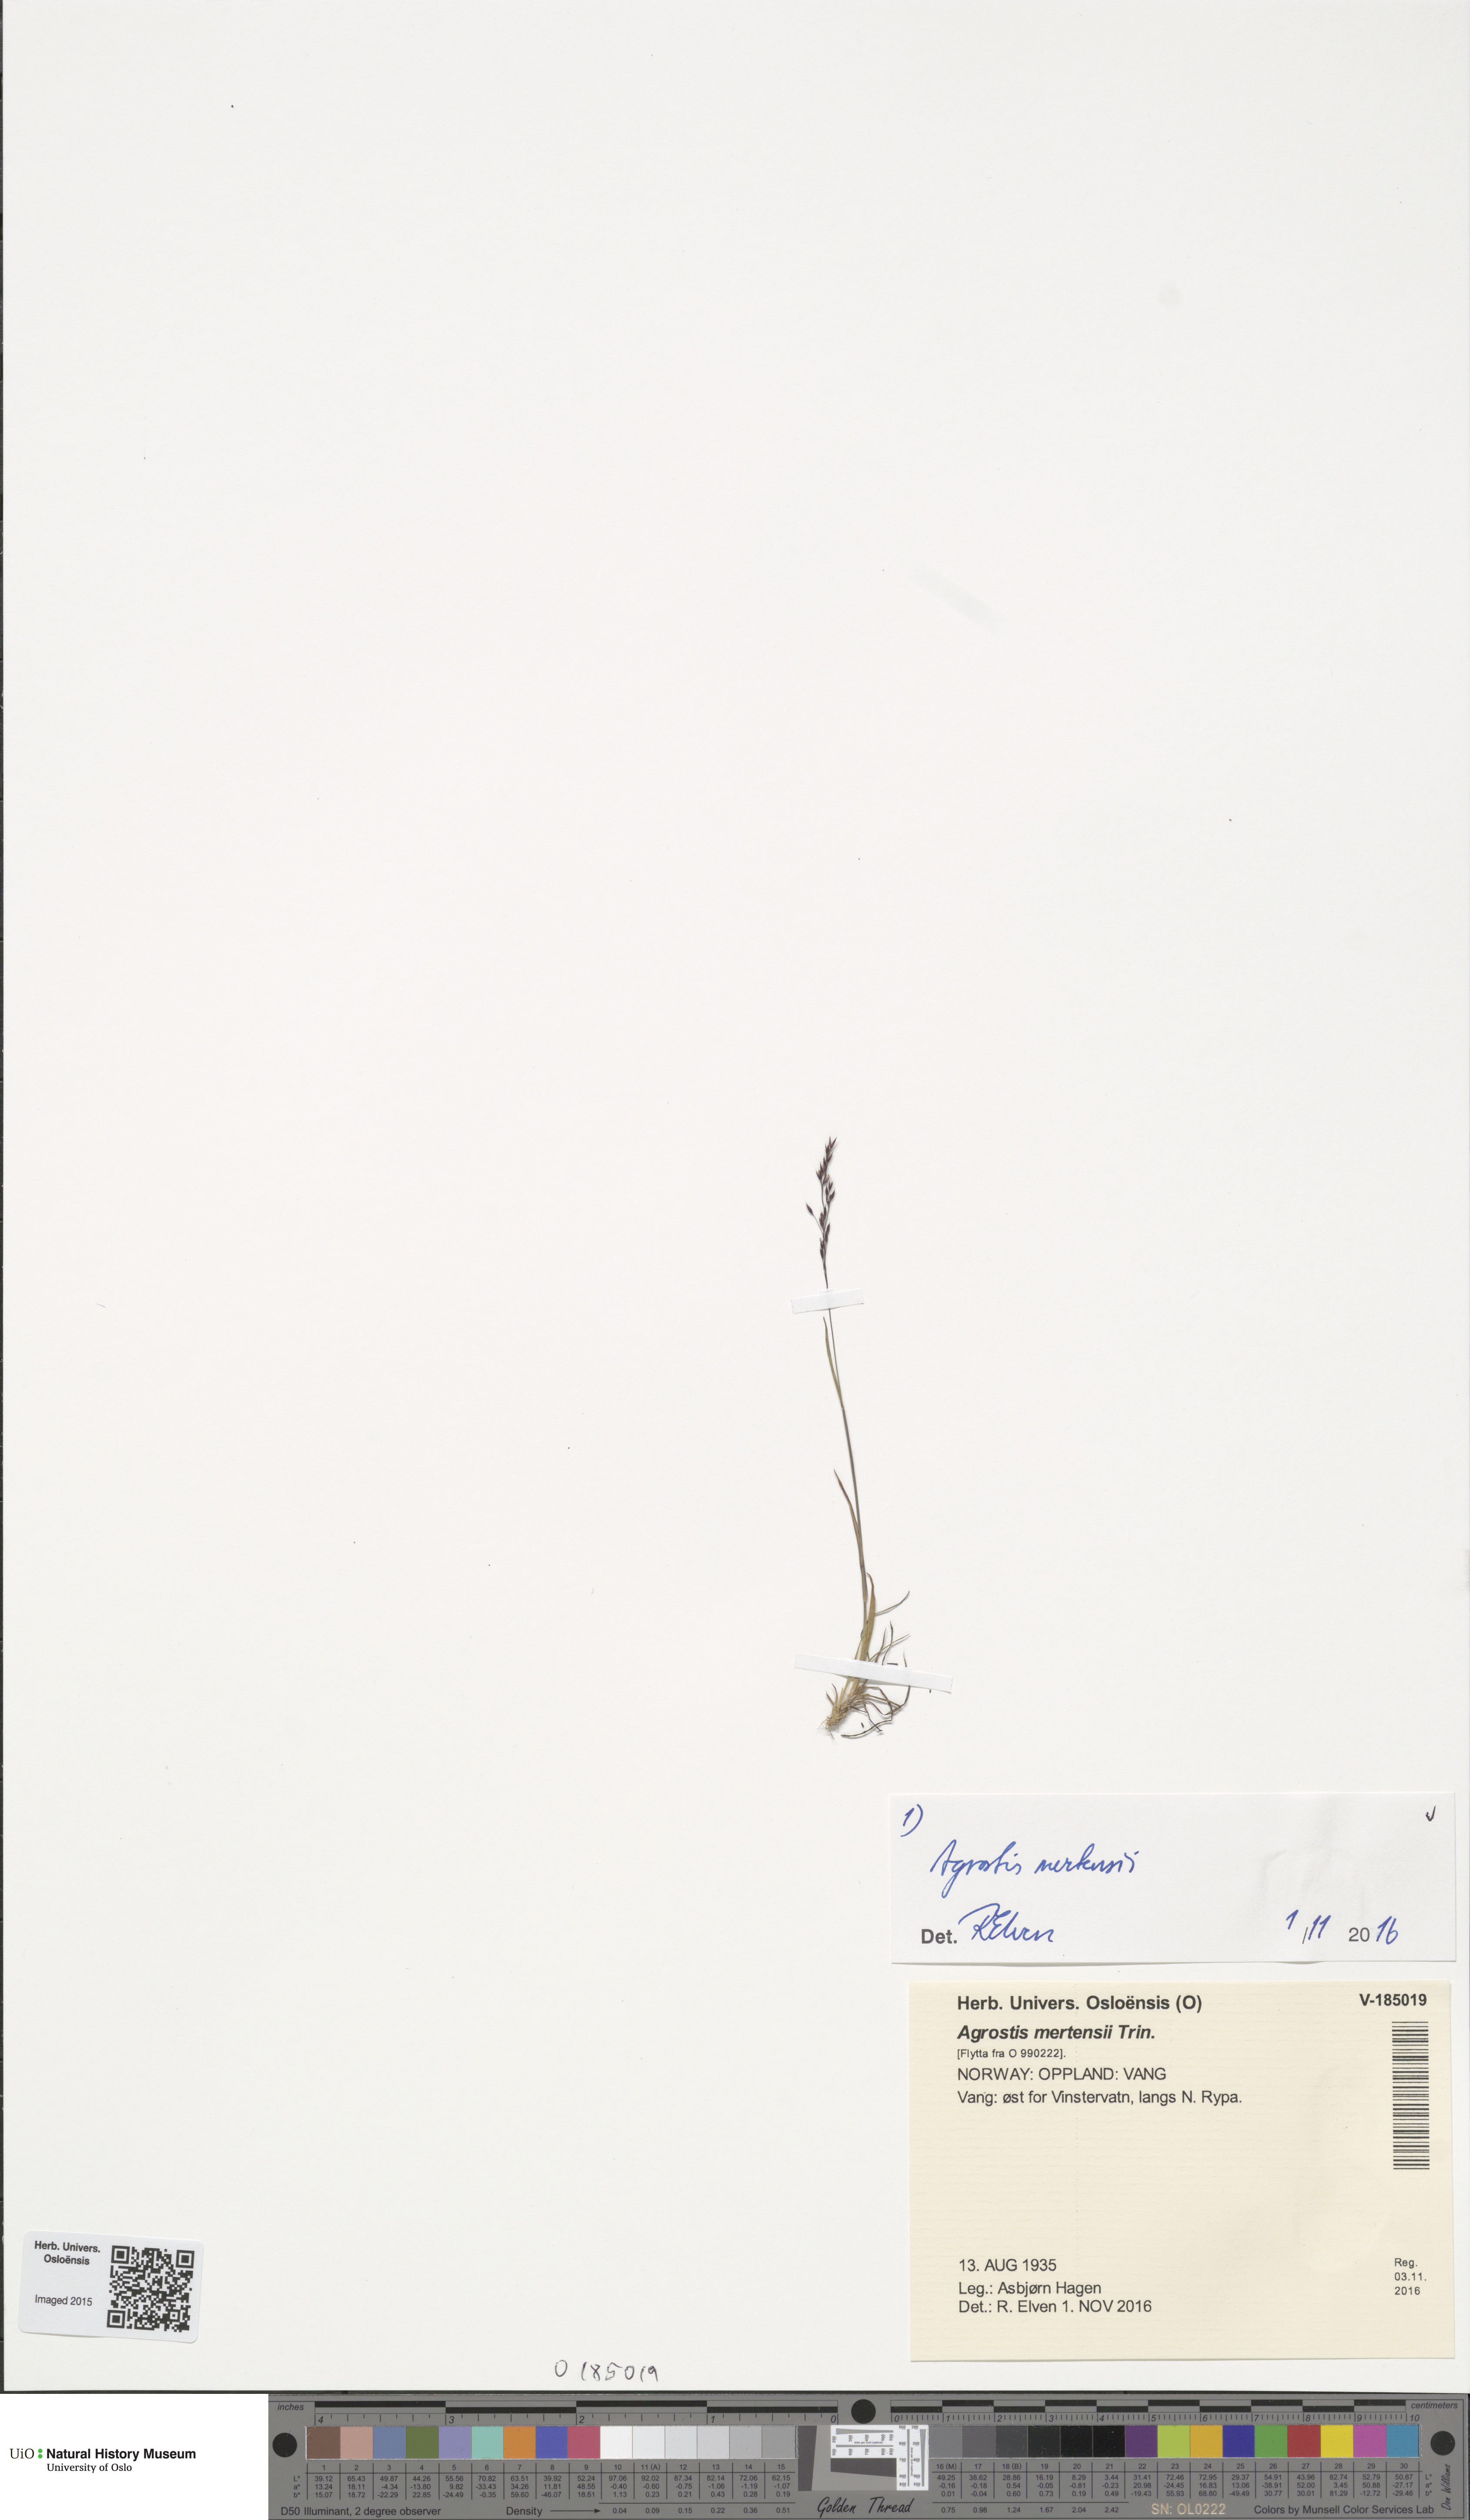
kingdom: Plantae
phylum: Tracheophyta
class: Liliopsida
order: Poales
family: Poaceae
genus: Agrostis
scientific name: Agrostis mertensii
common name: Northern bent
